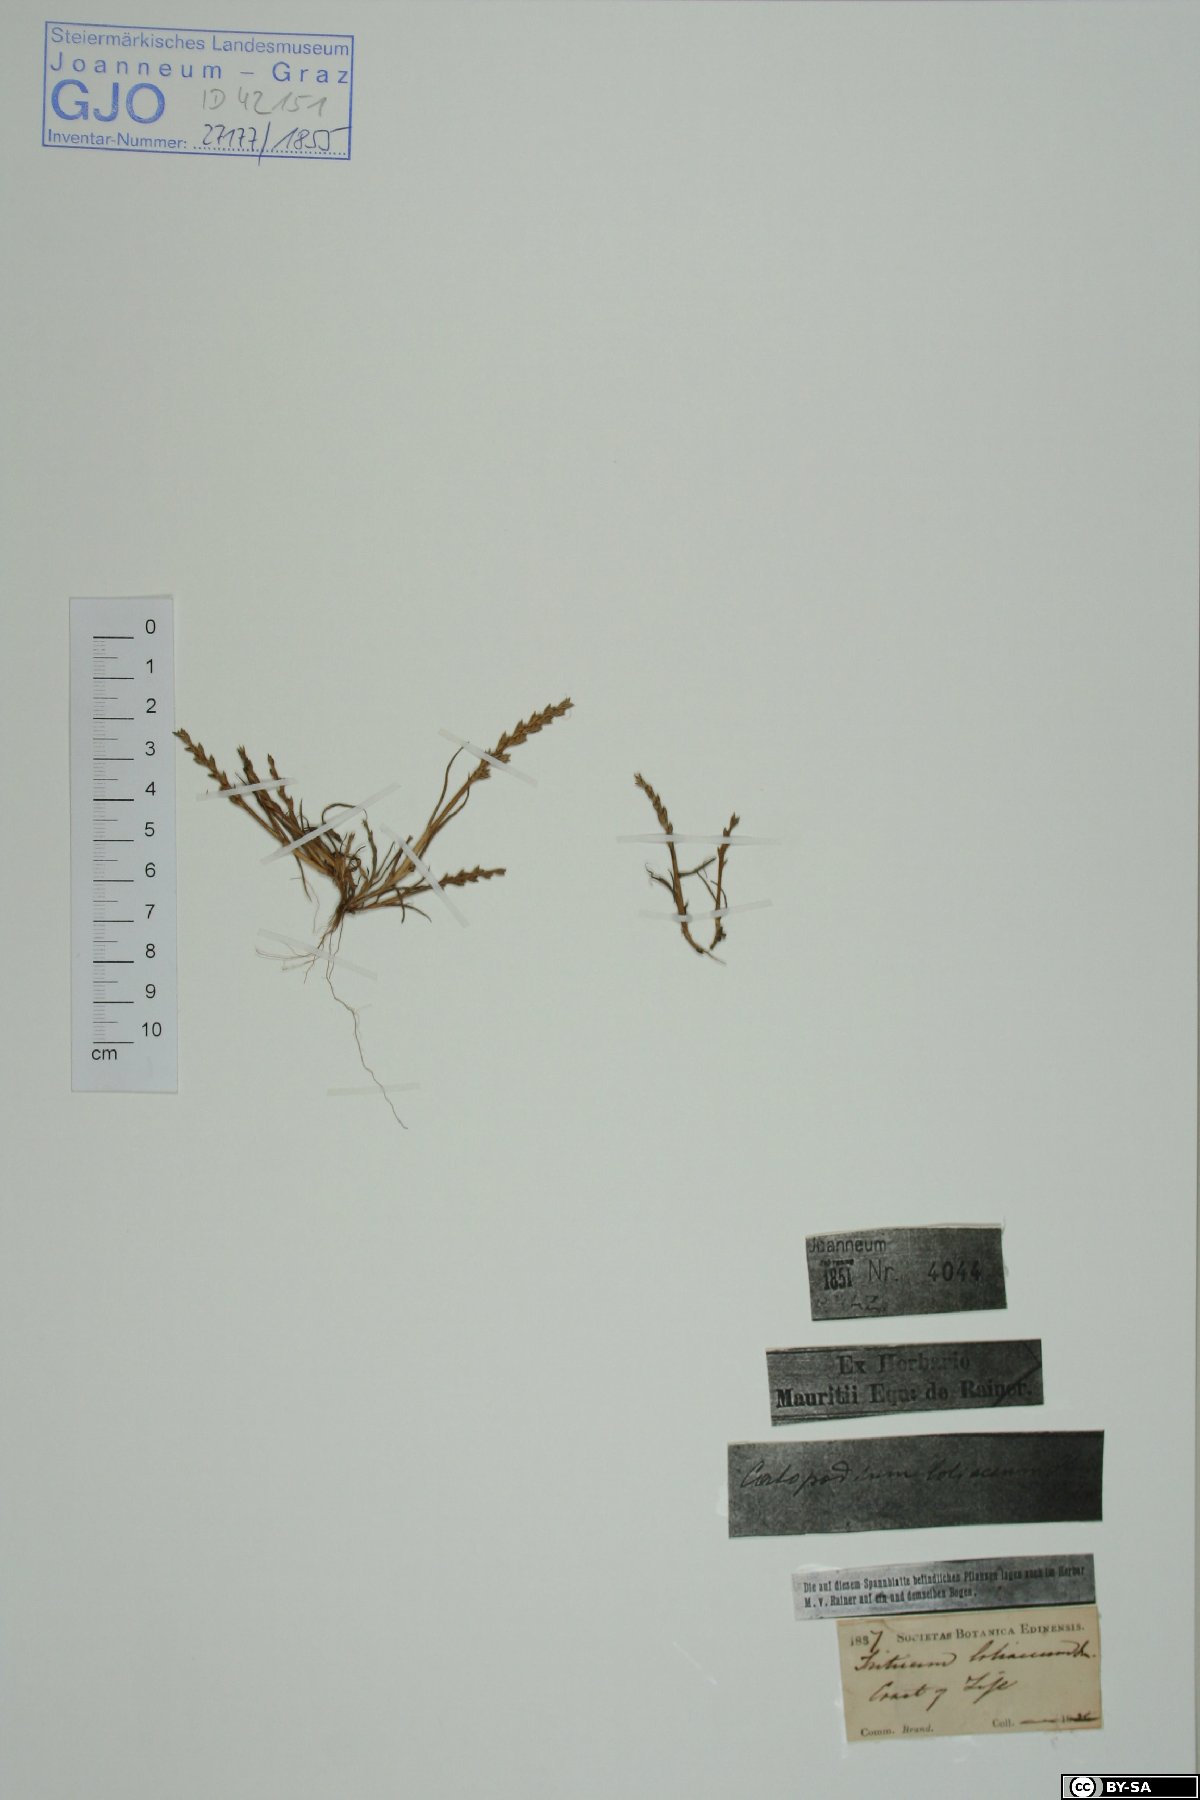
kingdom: Plantae
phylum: Tracheophyta
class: Liliopsida
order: Poales
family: Poaceae
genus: Catapodium
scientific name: Catapodium marinum
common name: Sea fern-grass
